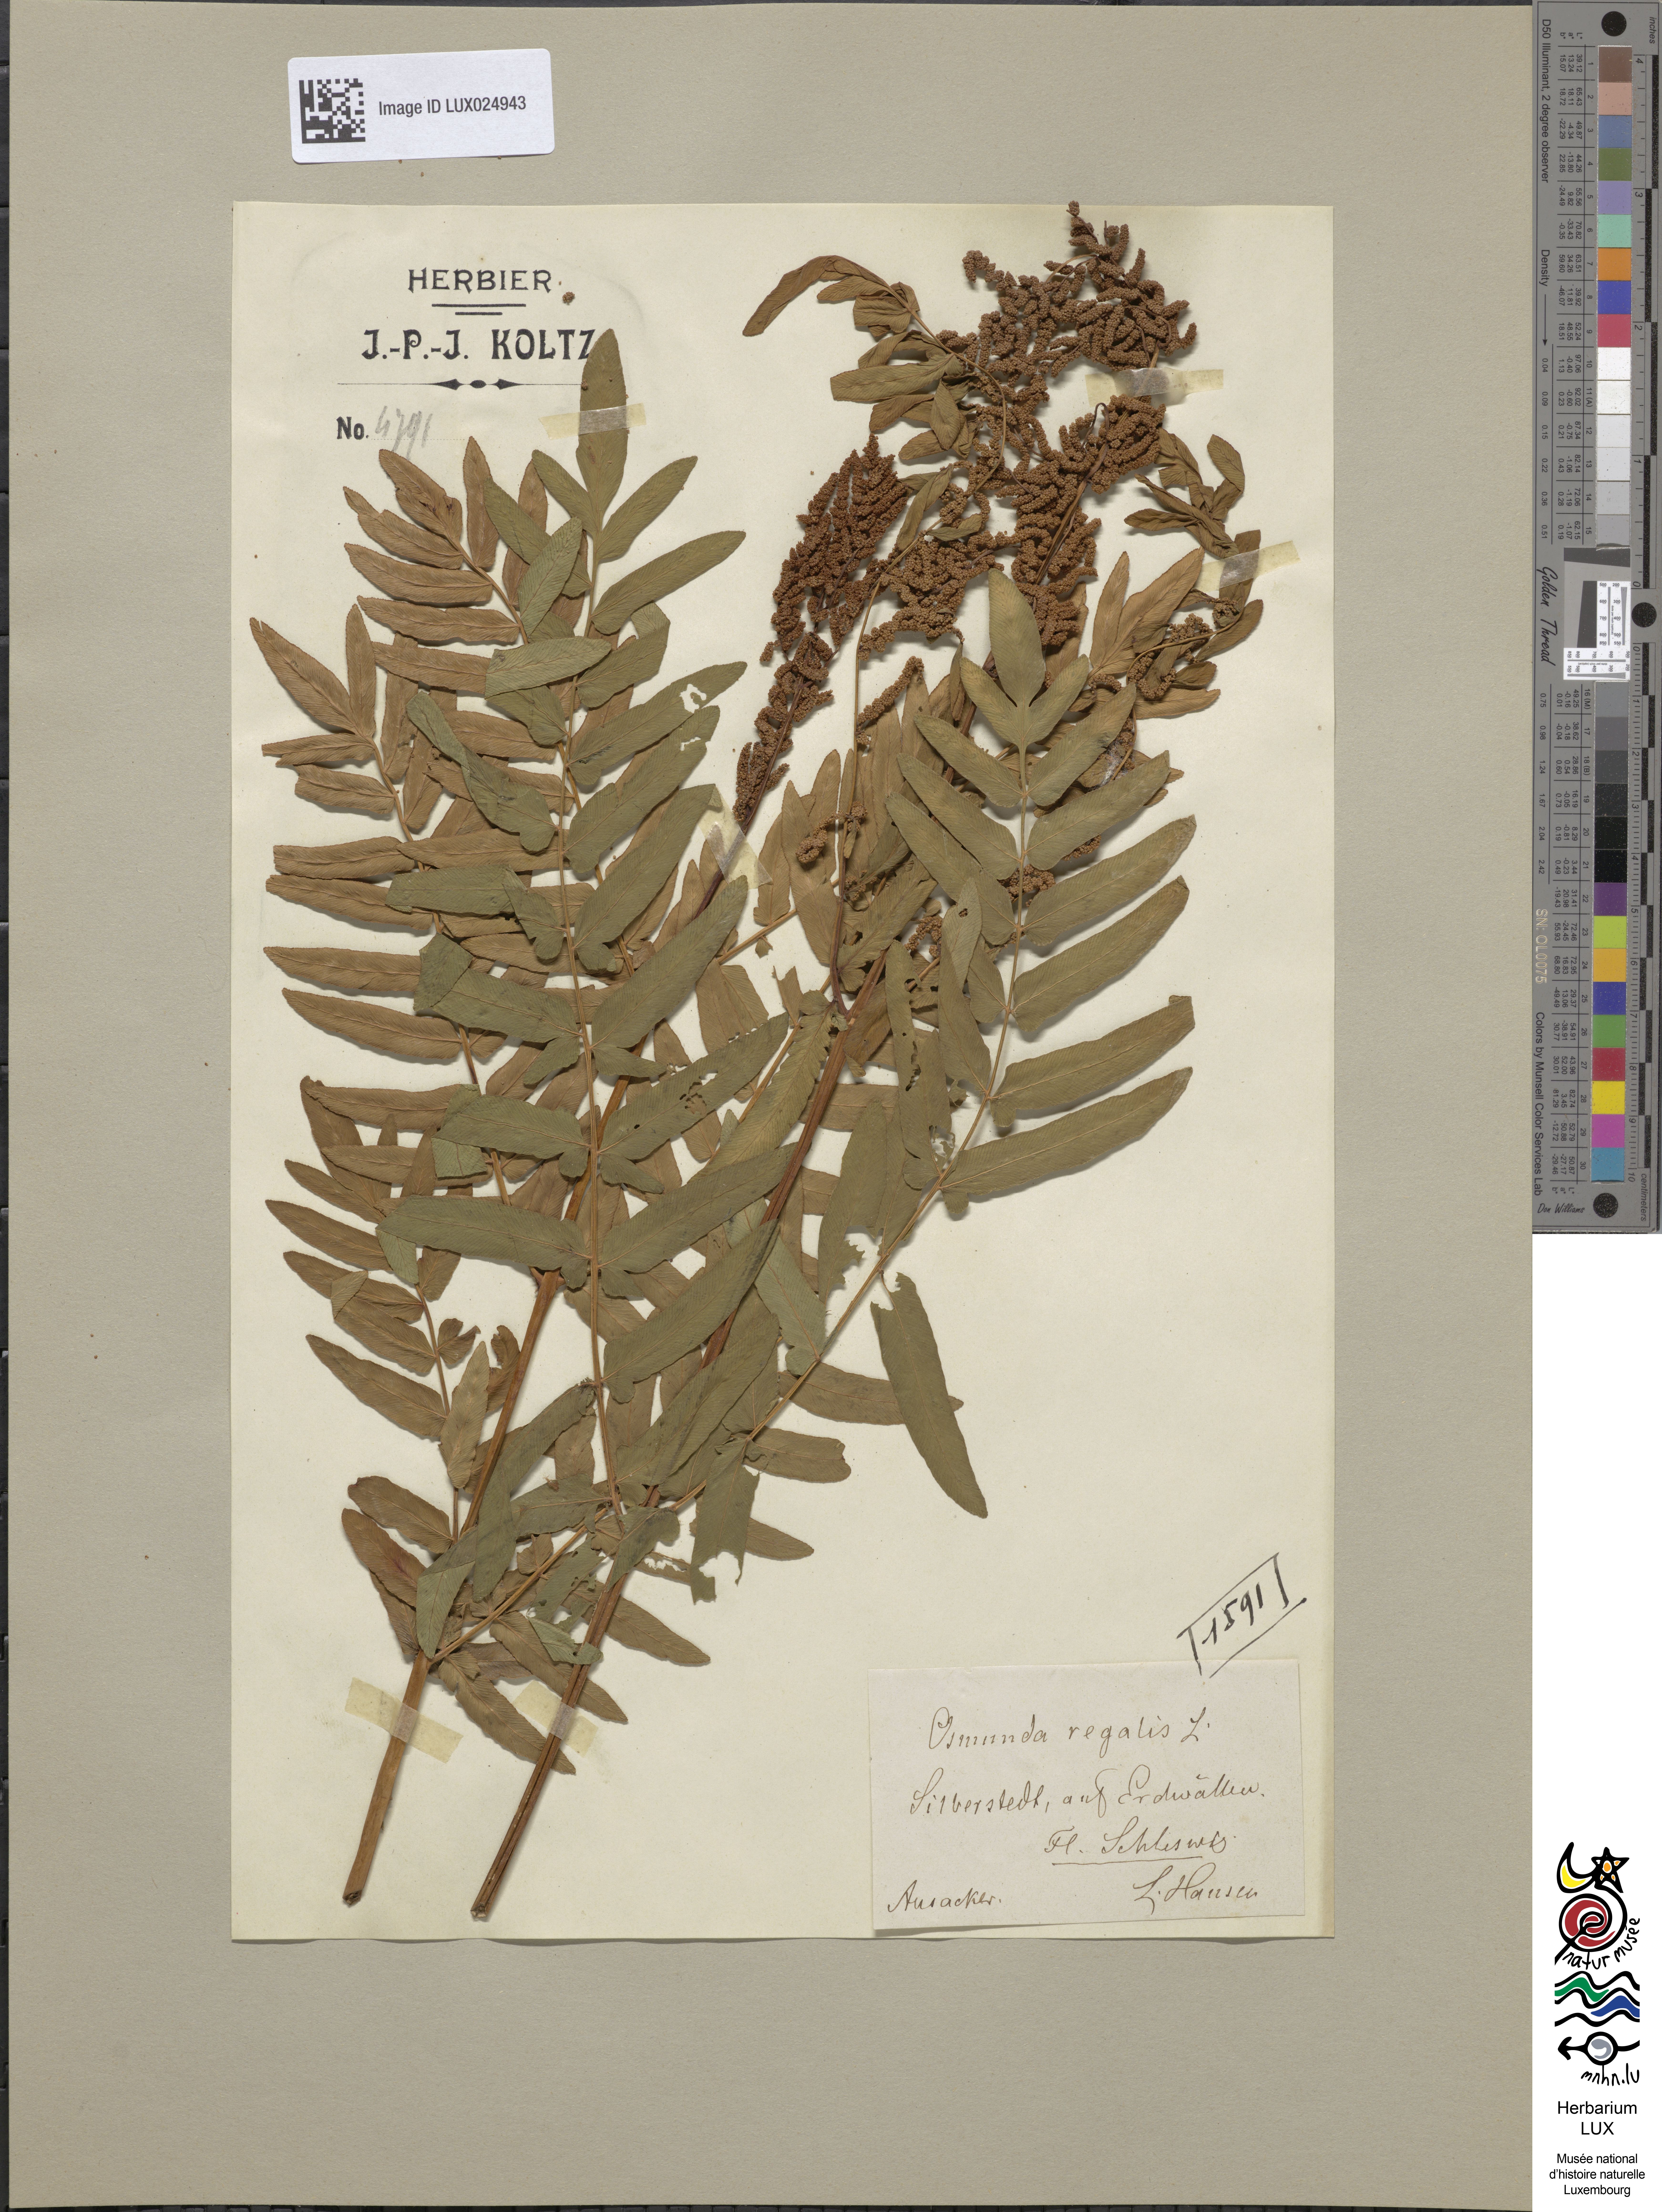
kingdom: Plantae
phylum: Tracheophyta
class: Polypodiopsida
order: Osmundales
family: Osmundaceae
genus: Osmunda
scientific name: Osmunda regalis
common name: Royal fern
